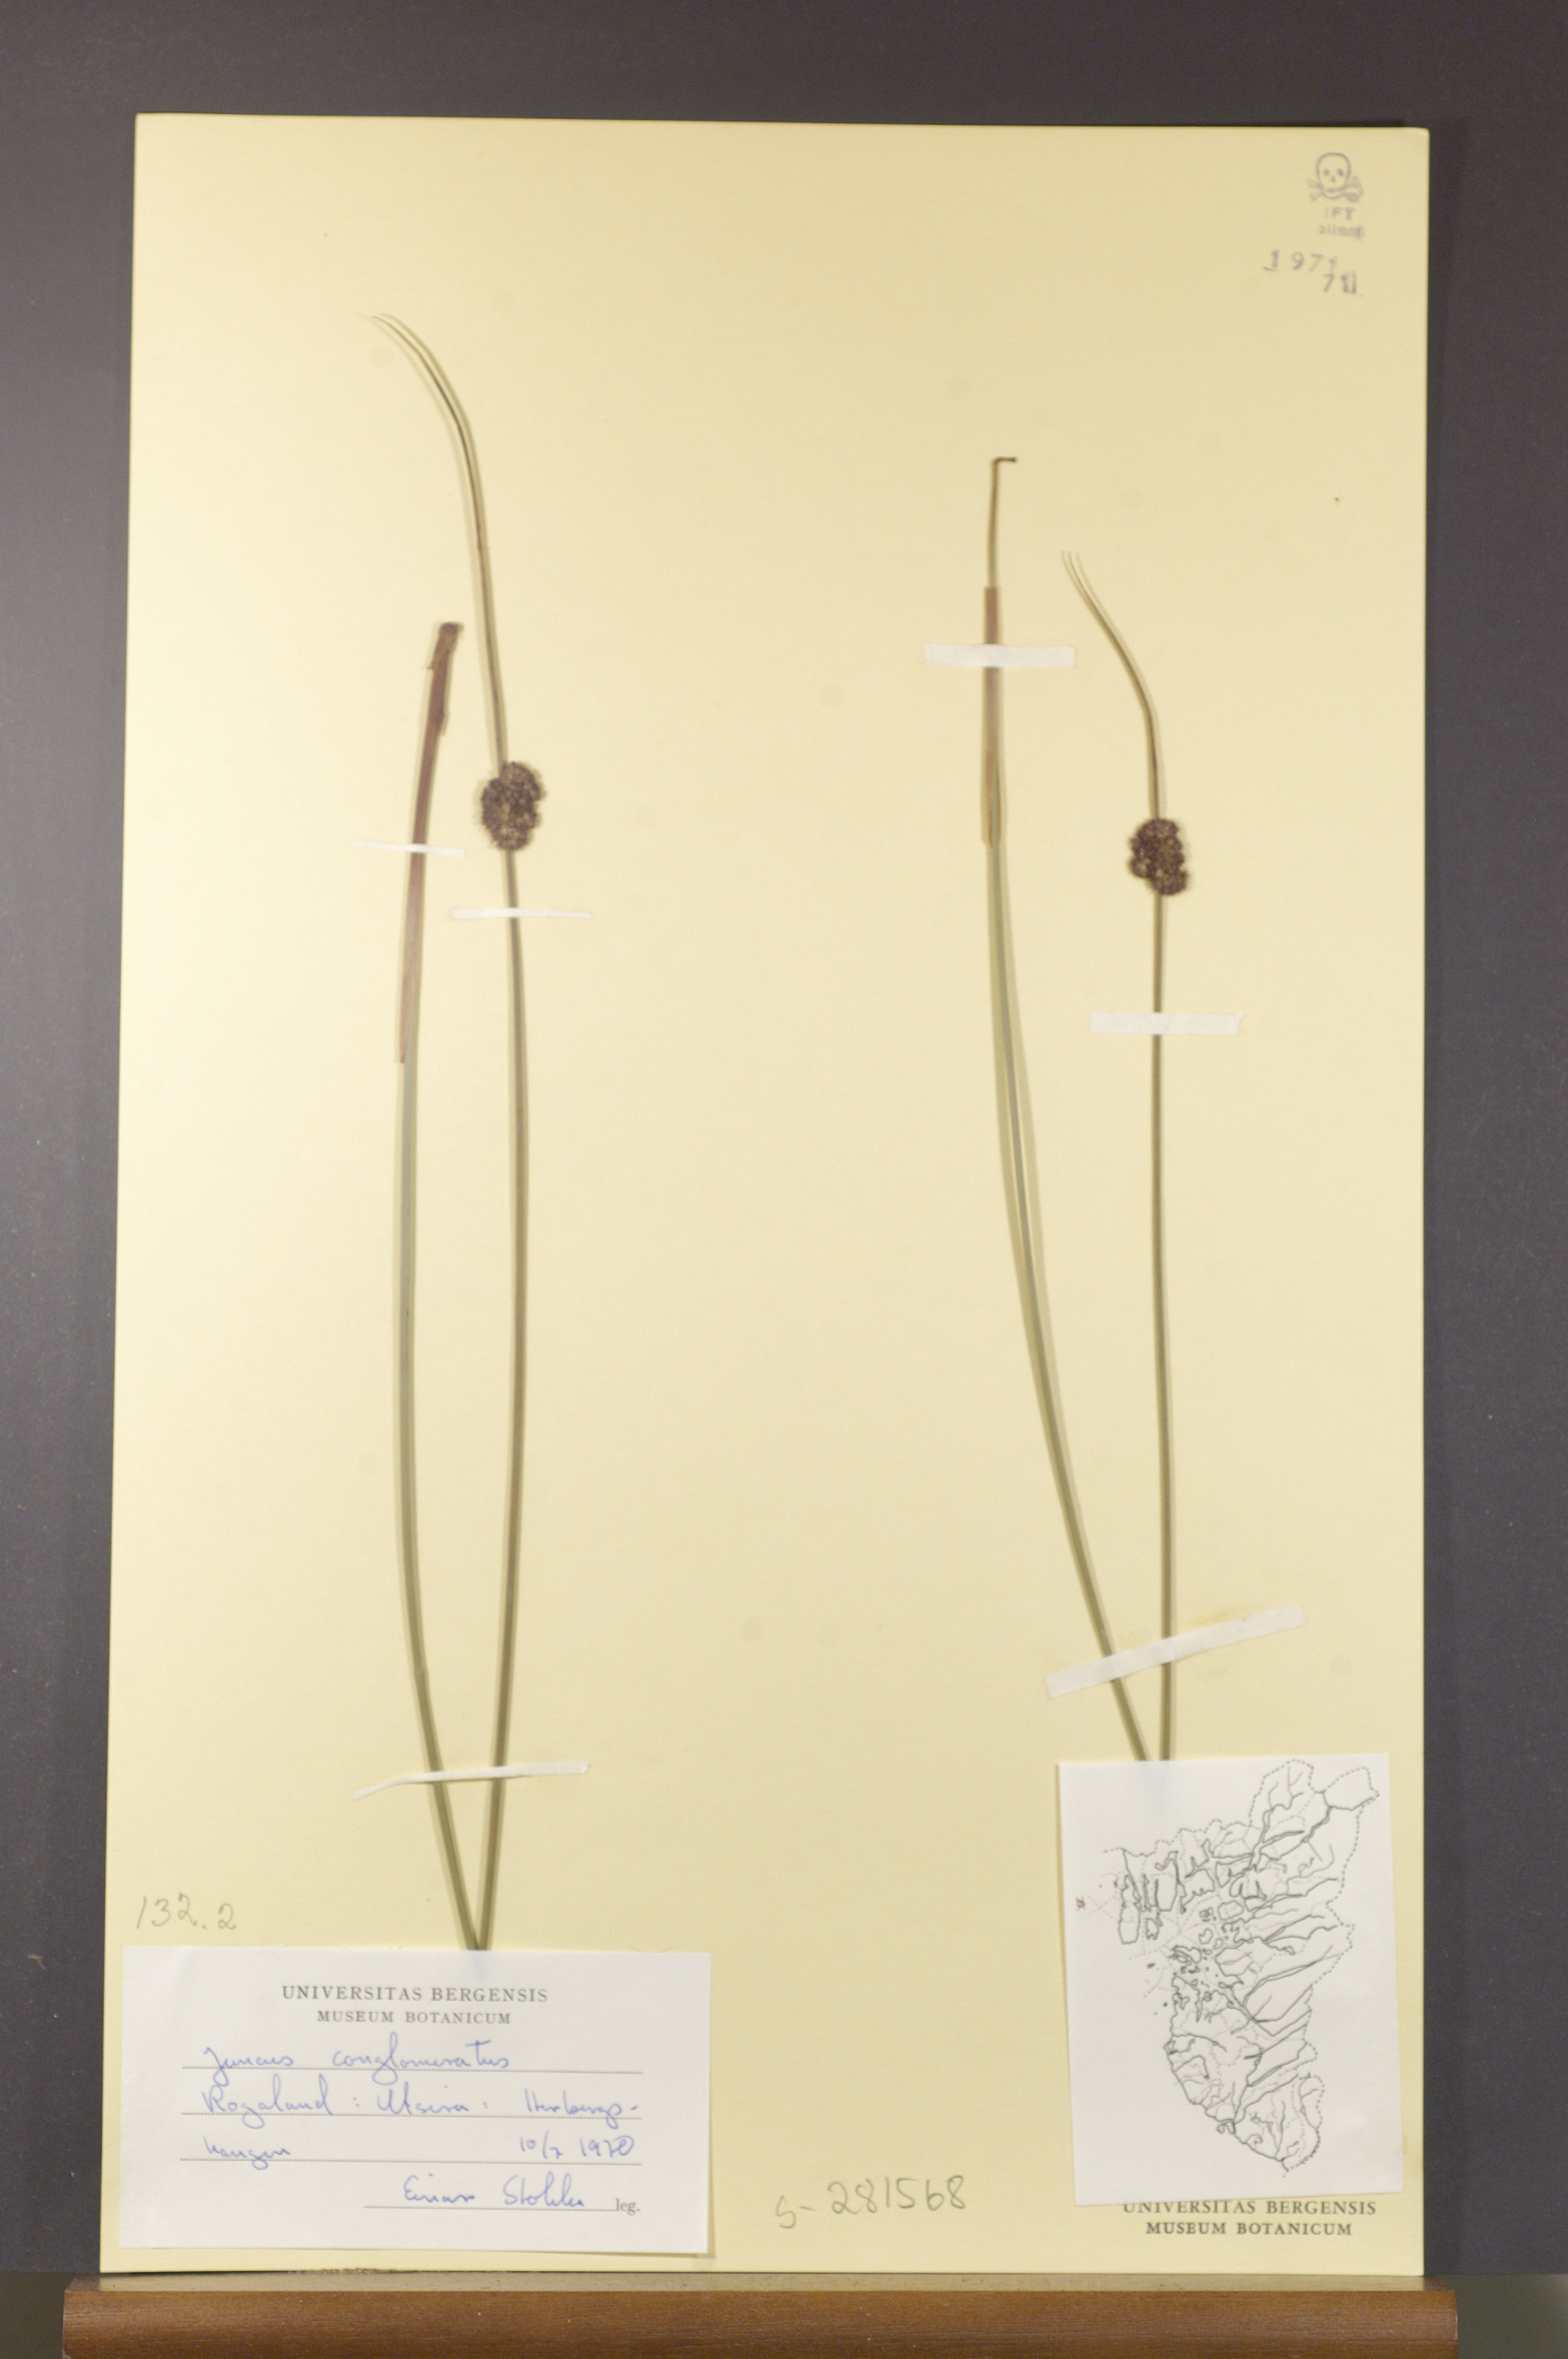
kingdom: Plantae
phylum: Tracheophyta
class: Liliopsida
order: Poales
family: Juncaceae
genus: Juncus
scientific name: Juncus conglomeratus
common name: Compact rush
